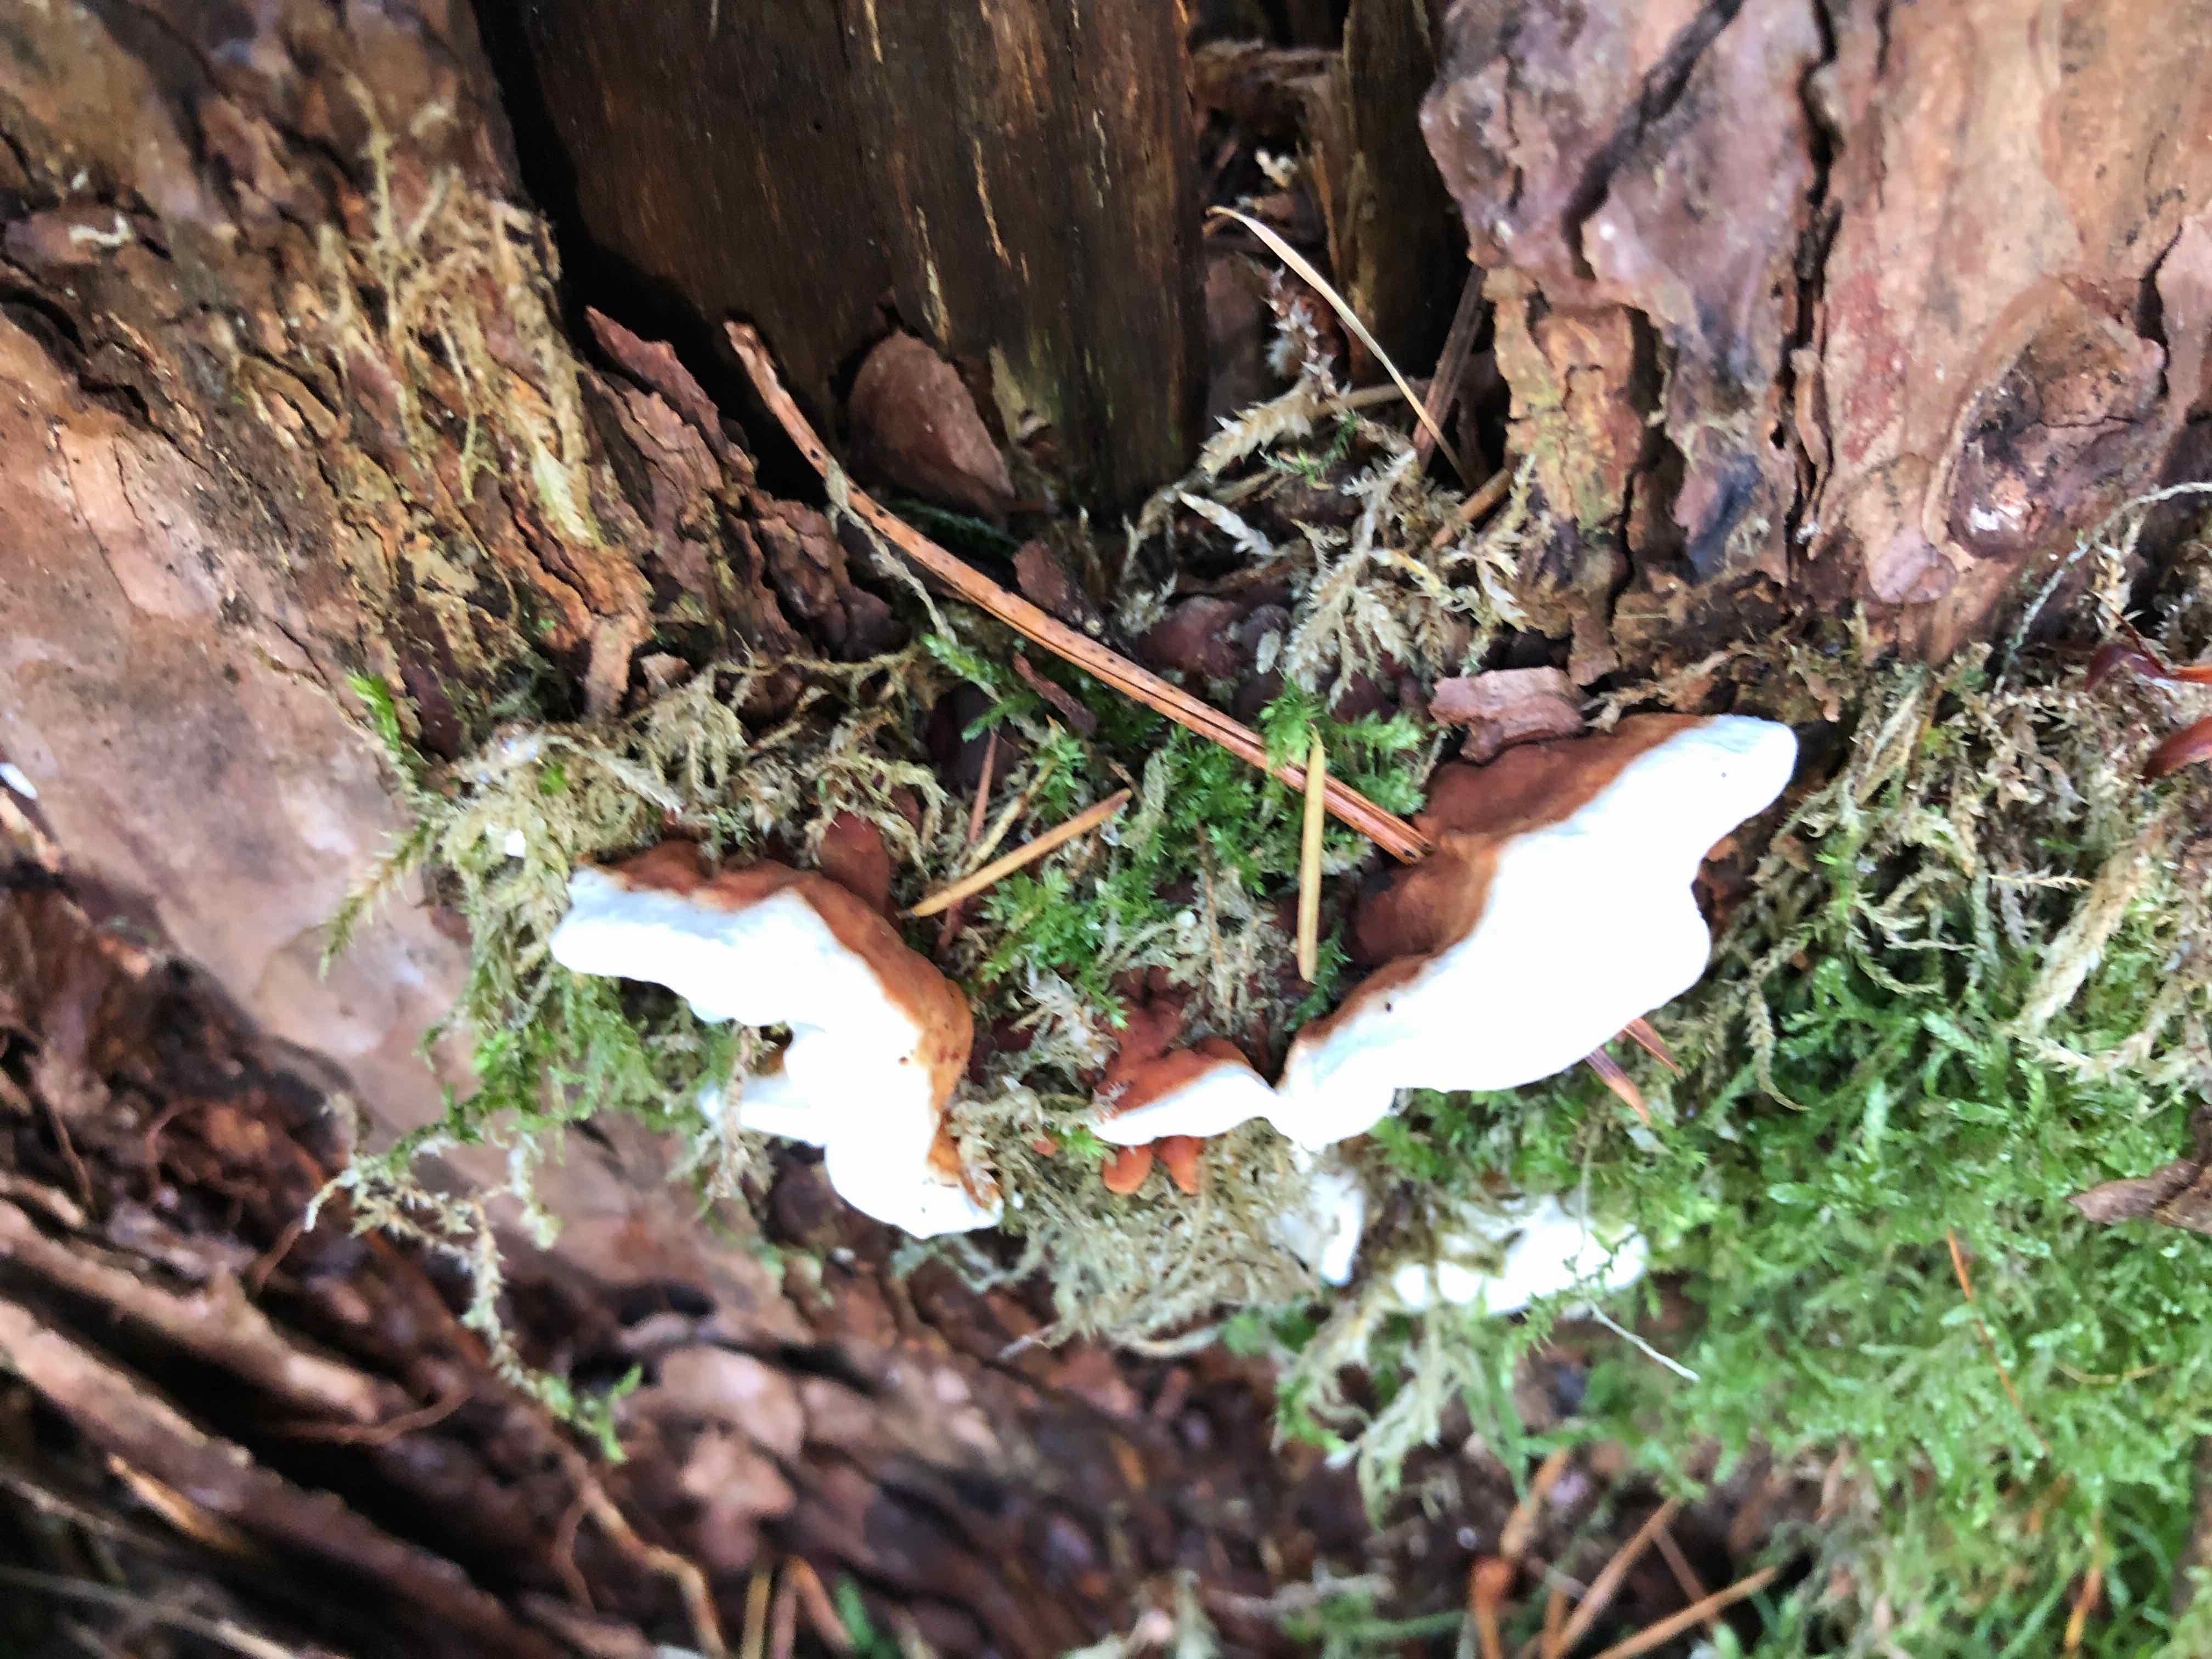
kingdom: Fungi
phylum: Basidiomycota
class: Agaricomycetes
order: Russulales
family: Bondarzewiaceae
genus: Heterobasidion
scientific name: Heterobasidion annosum
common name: almindelig rodfordærver
